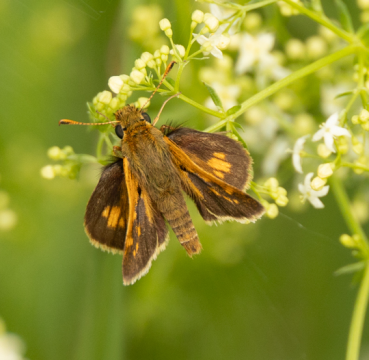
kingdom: Animalia
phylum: Arthropoda
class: Insecta
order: Lepidoptera
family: Hesperiidae
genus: Polites
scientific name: Polites coras
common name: Peck's Skipper
